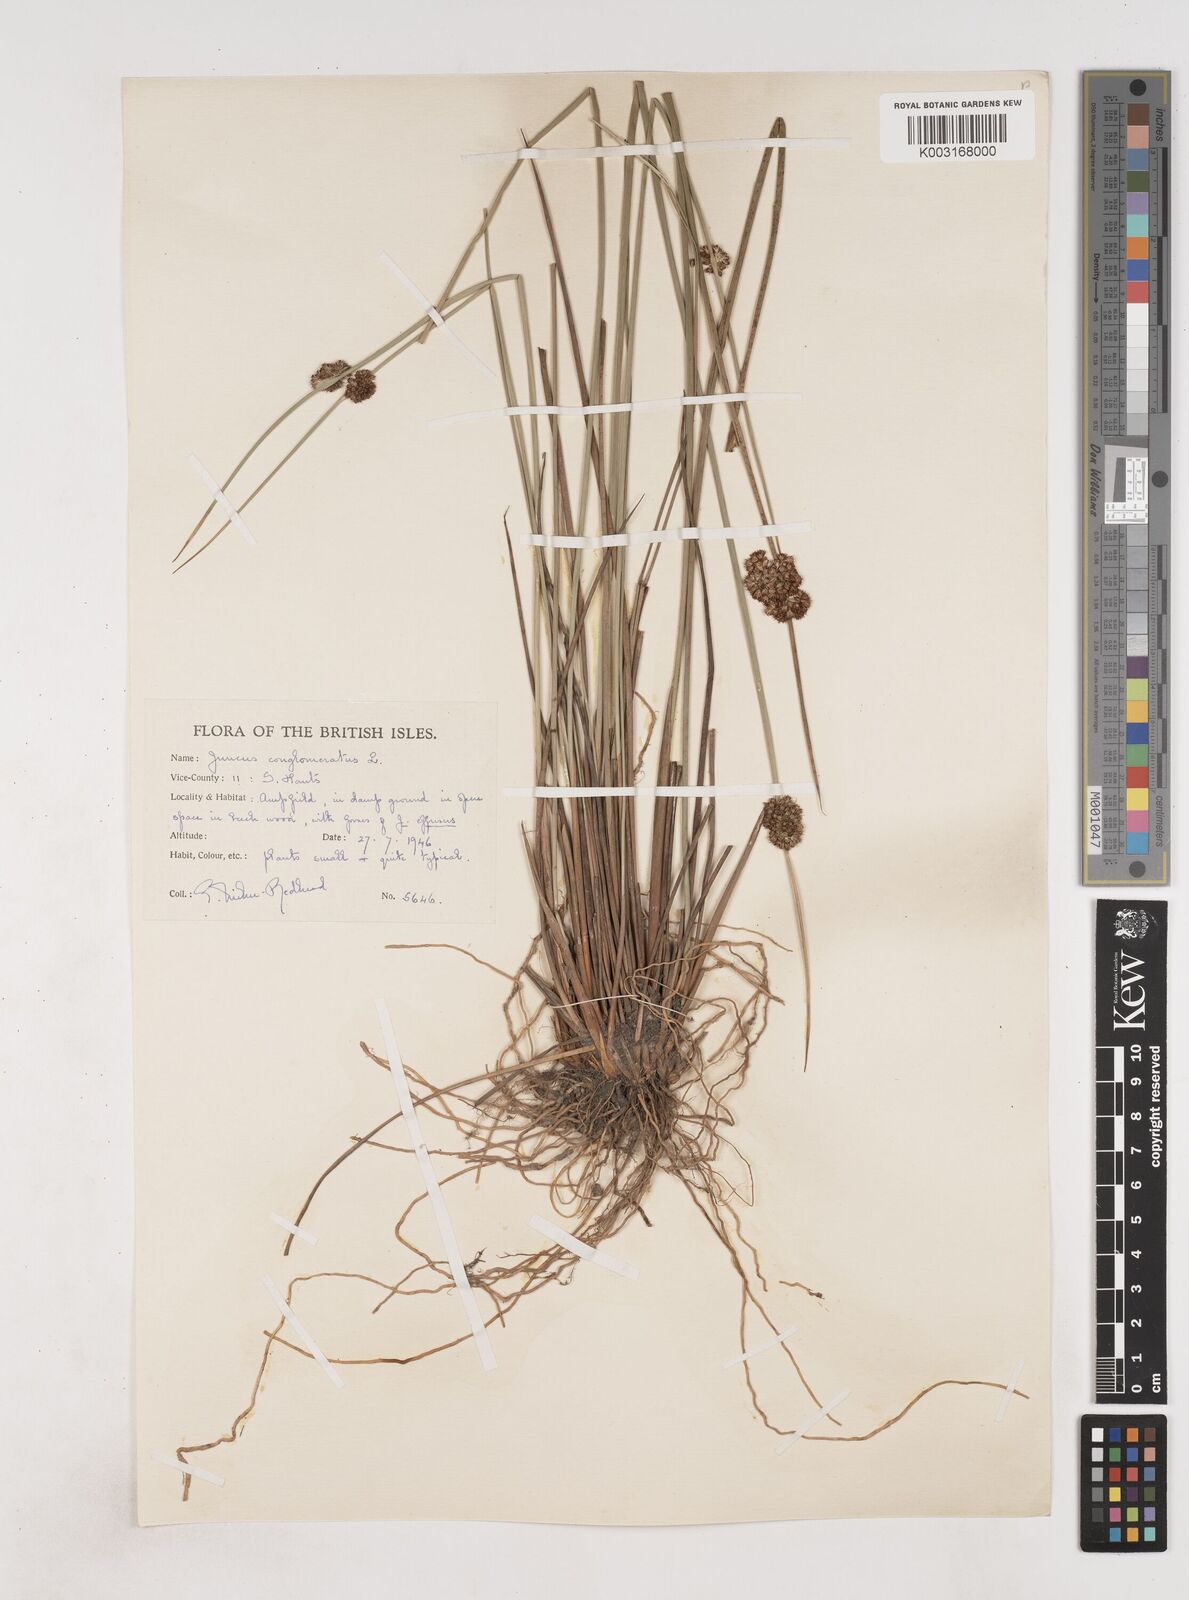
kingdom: Plantae
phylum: Tracheophyta
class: Liliopsida
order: Poales
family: Juncaceae
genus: Juncus
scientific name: Juncus conglomeratus
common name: Compact rush
